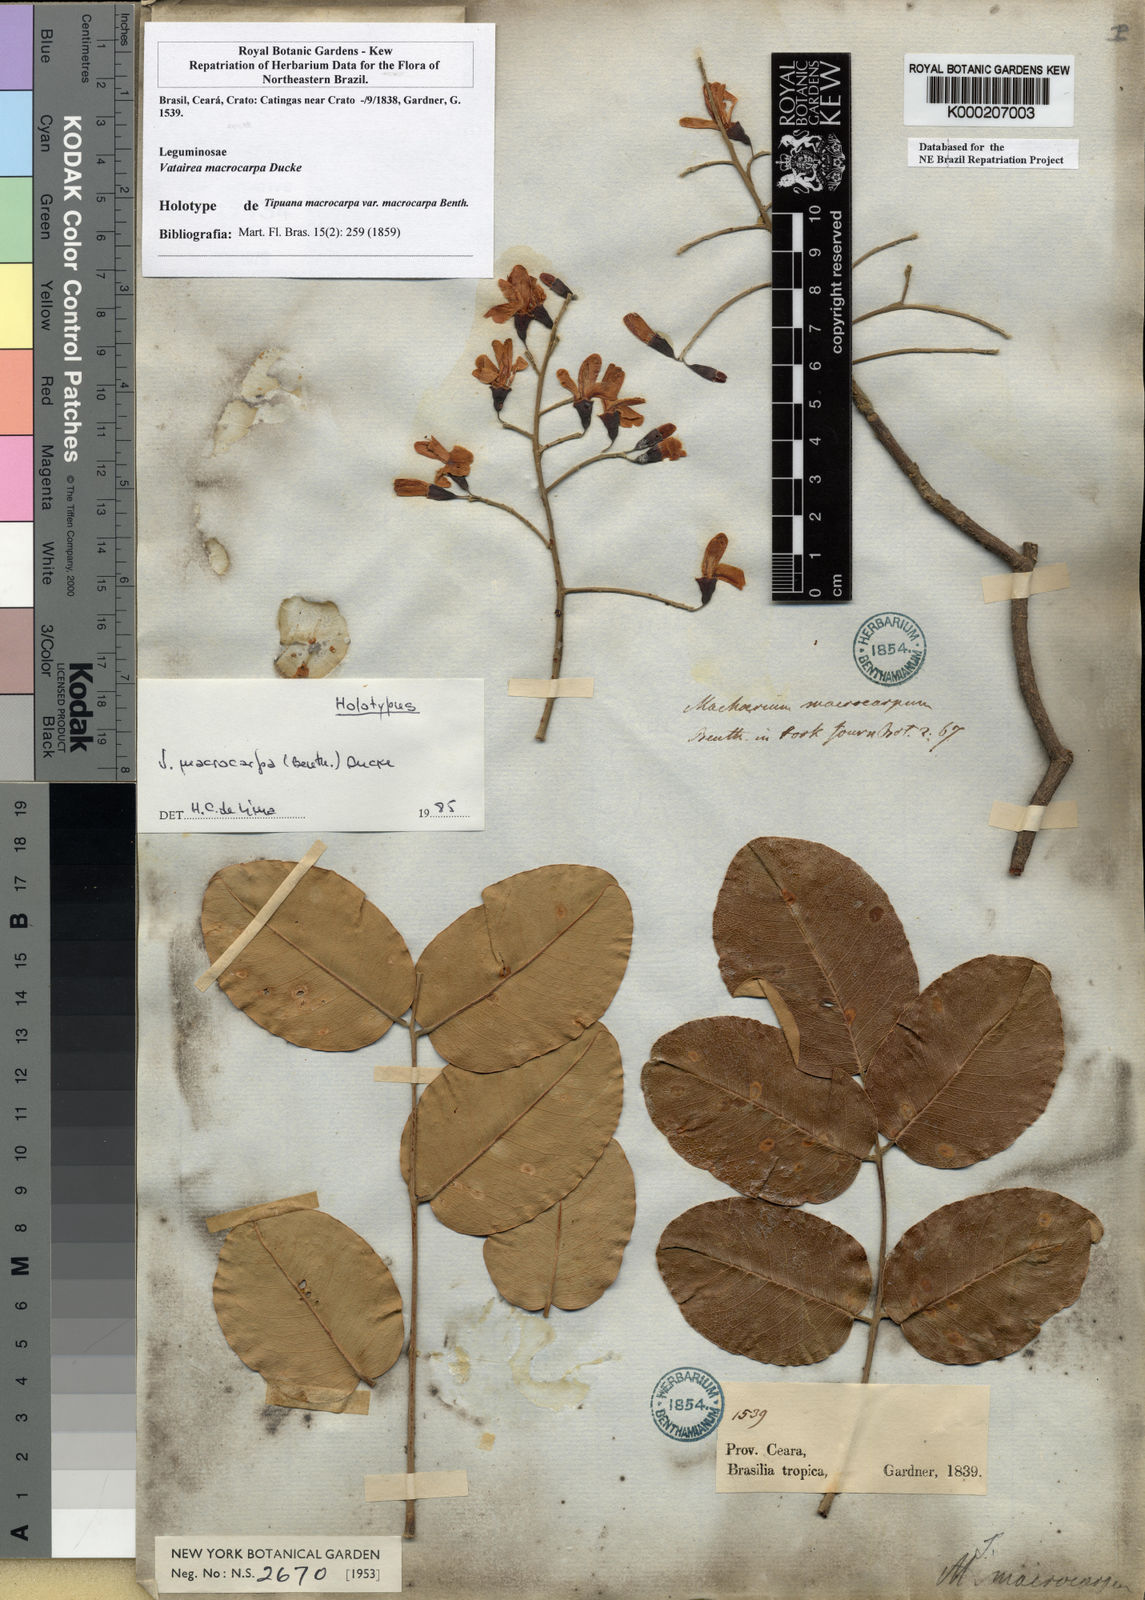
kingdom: Plantae
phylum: Tracheophyta
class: Magnoliopsida
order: Fabales
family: Fabaceae
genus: Vatairea
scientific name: Vatairea macrocarpa
